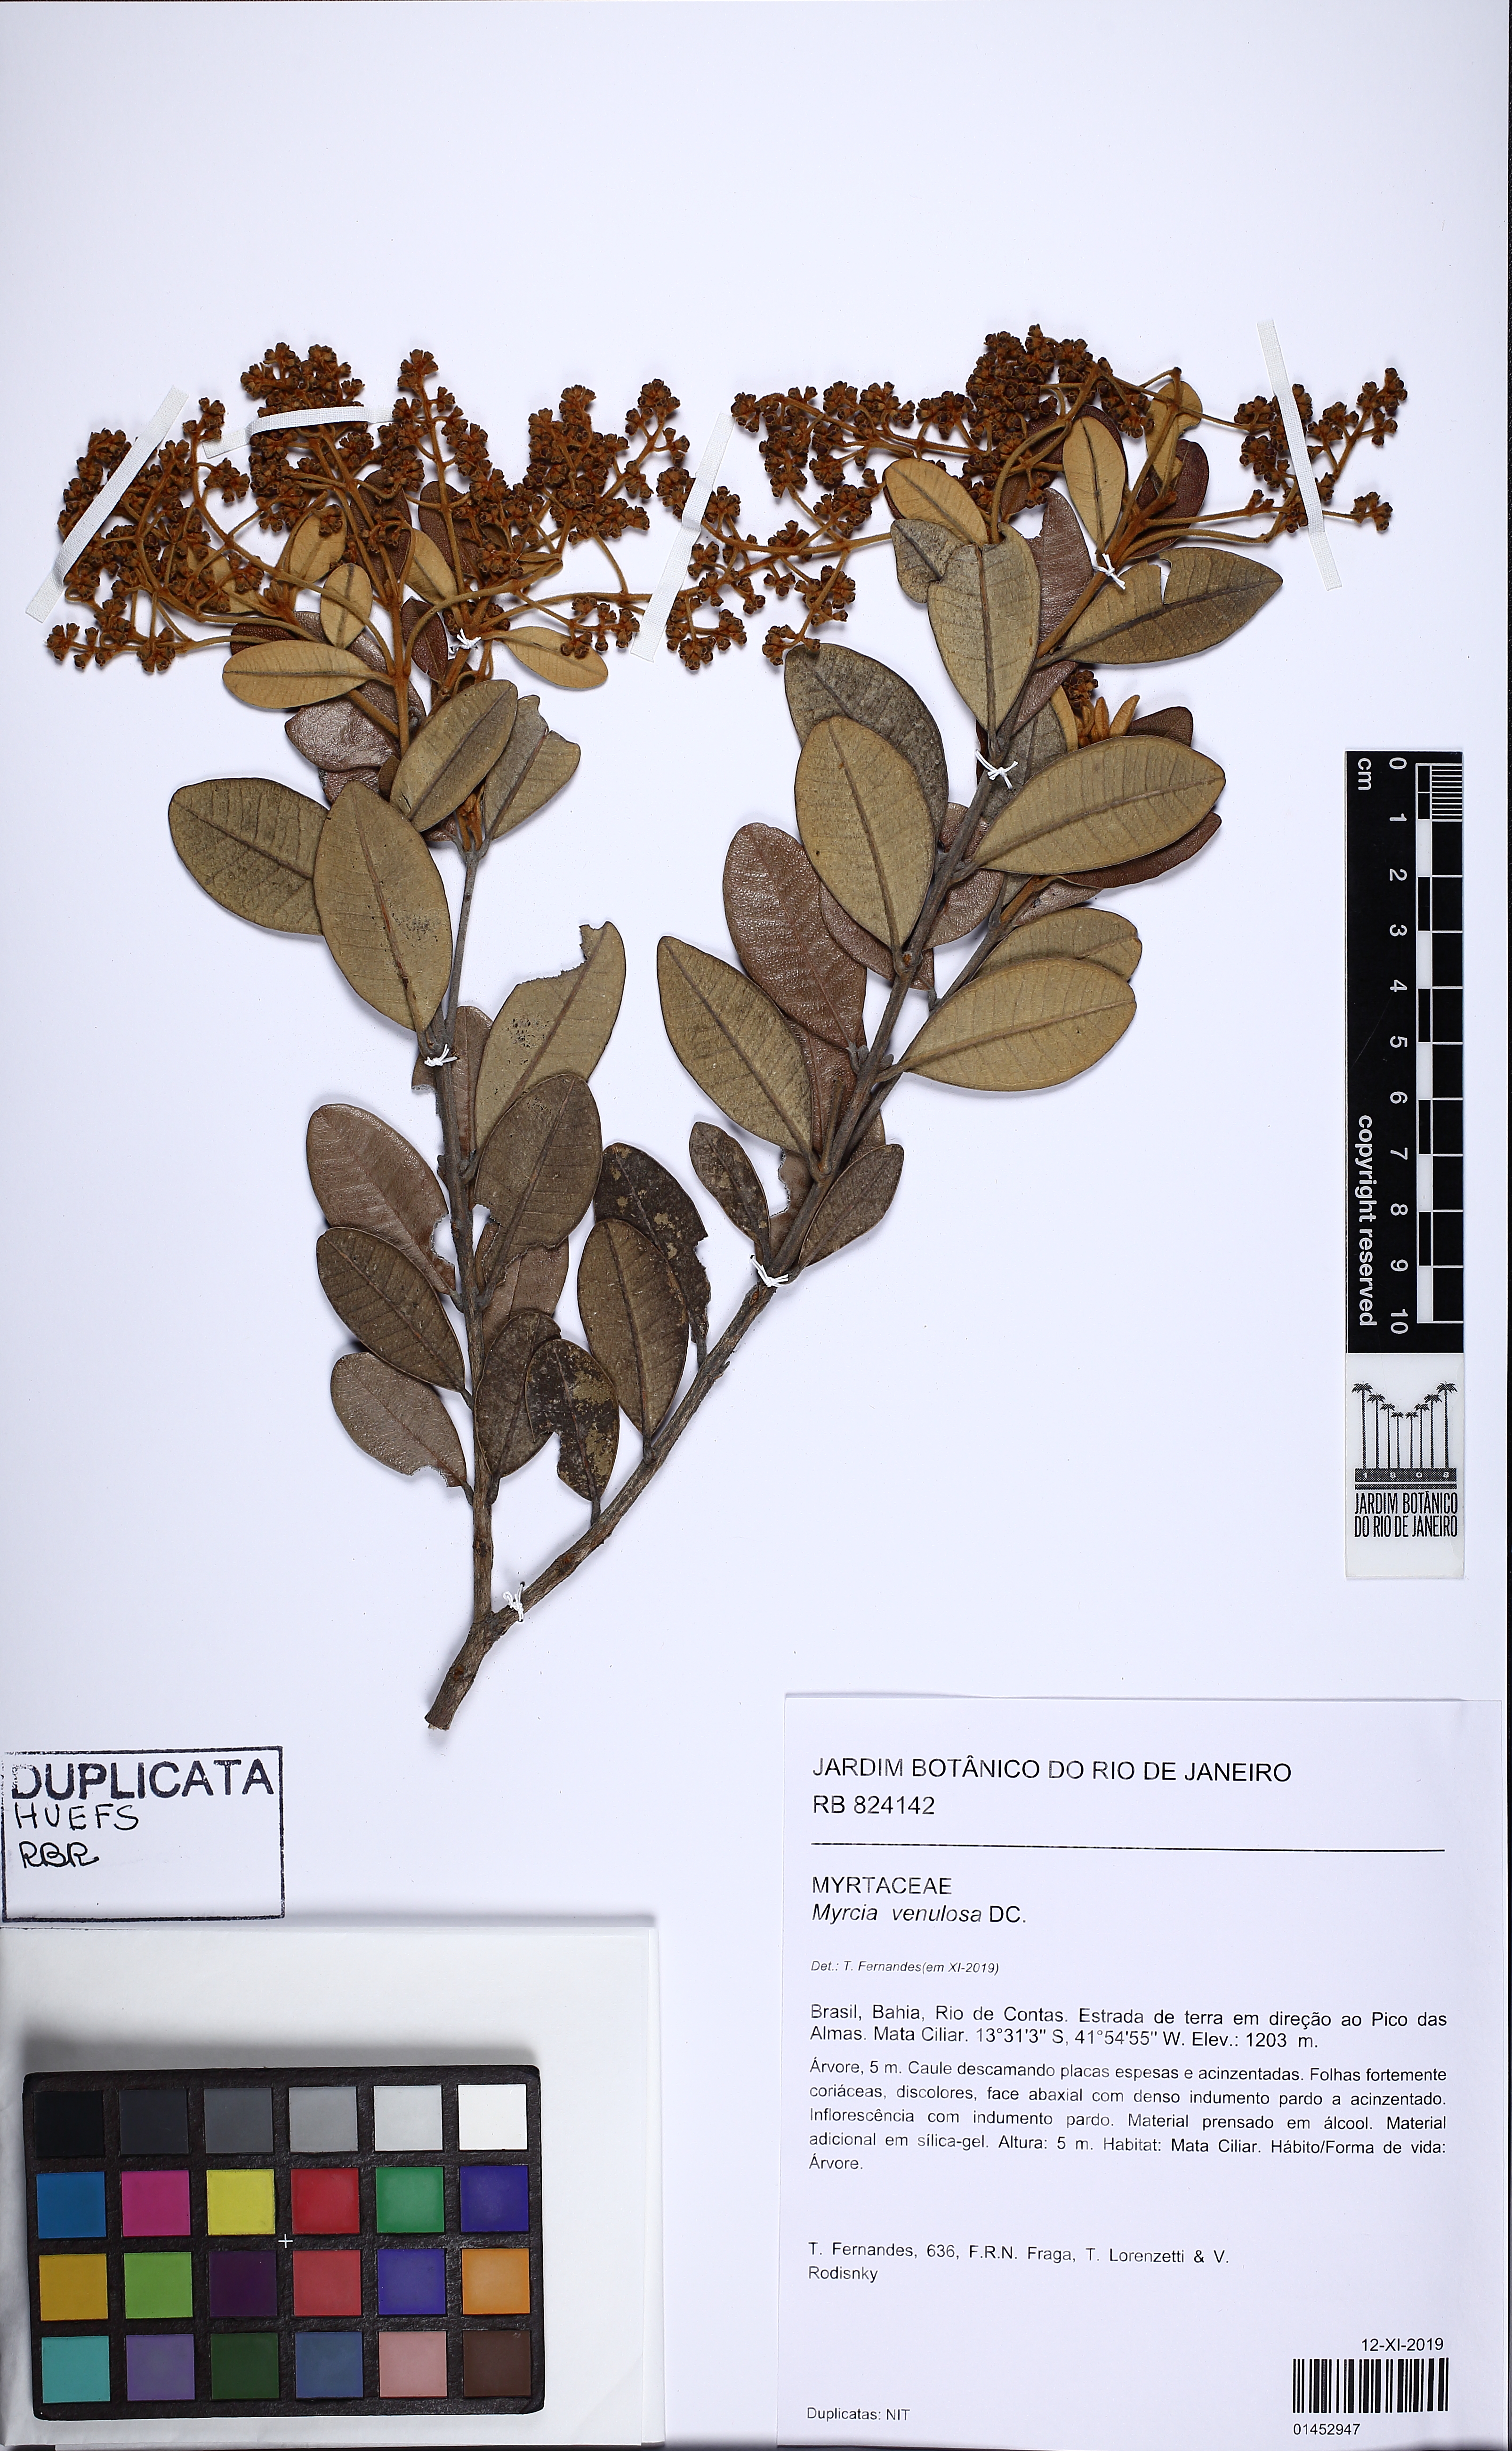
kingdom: Plantae
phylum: Tracheophyta
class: Magnoliopsida
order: Myrtales
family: Myrtaceae
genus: Myrcia
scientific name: Myrcia venulosa
